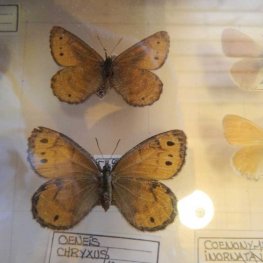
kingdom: Animalia
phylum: Arthropoda
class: Insecta
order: Lepidoptera
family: Nymphalidae
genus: Oeneis
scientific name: Oeneis chryxus
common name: Chryxus Arctic
